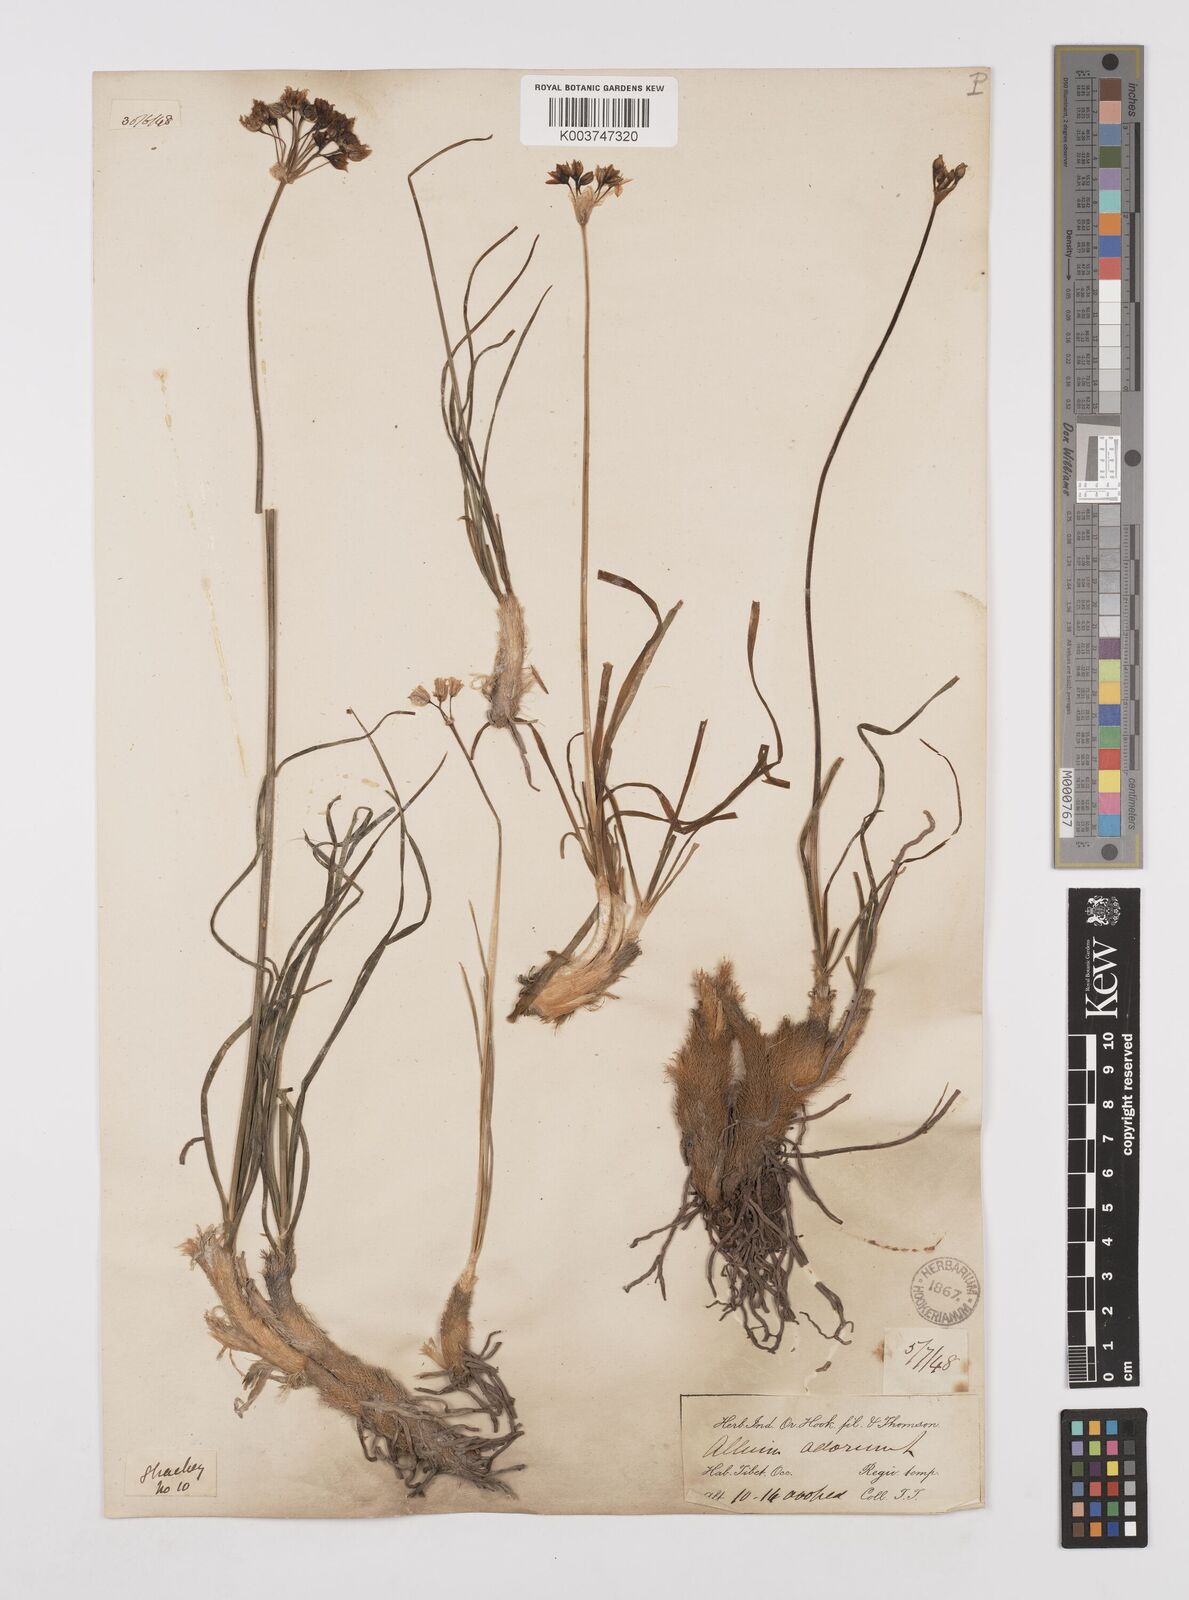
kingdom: Plantae
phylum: Tracheophyta
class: Liliopsida
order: Asparagales
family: Amaryllidaceae
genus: Allium
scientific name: Allium tuberosum
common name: Chinese chives
